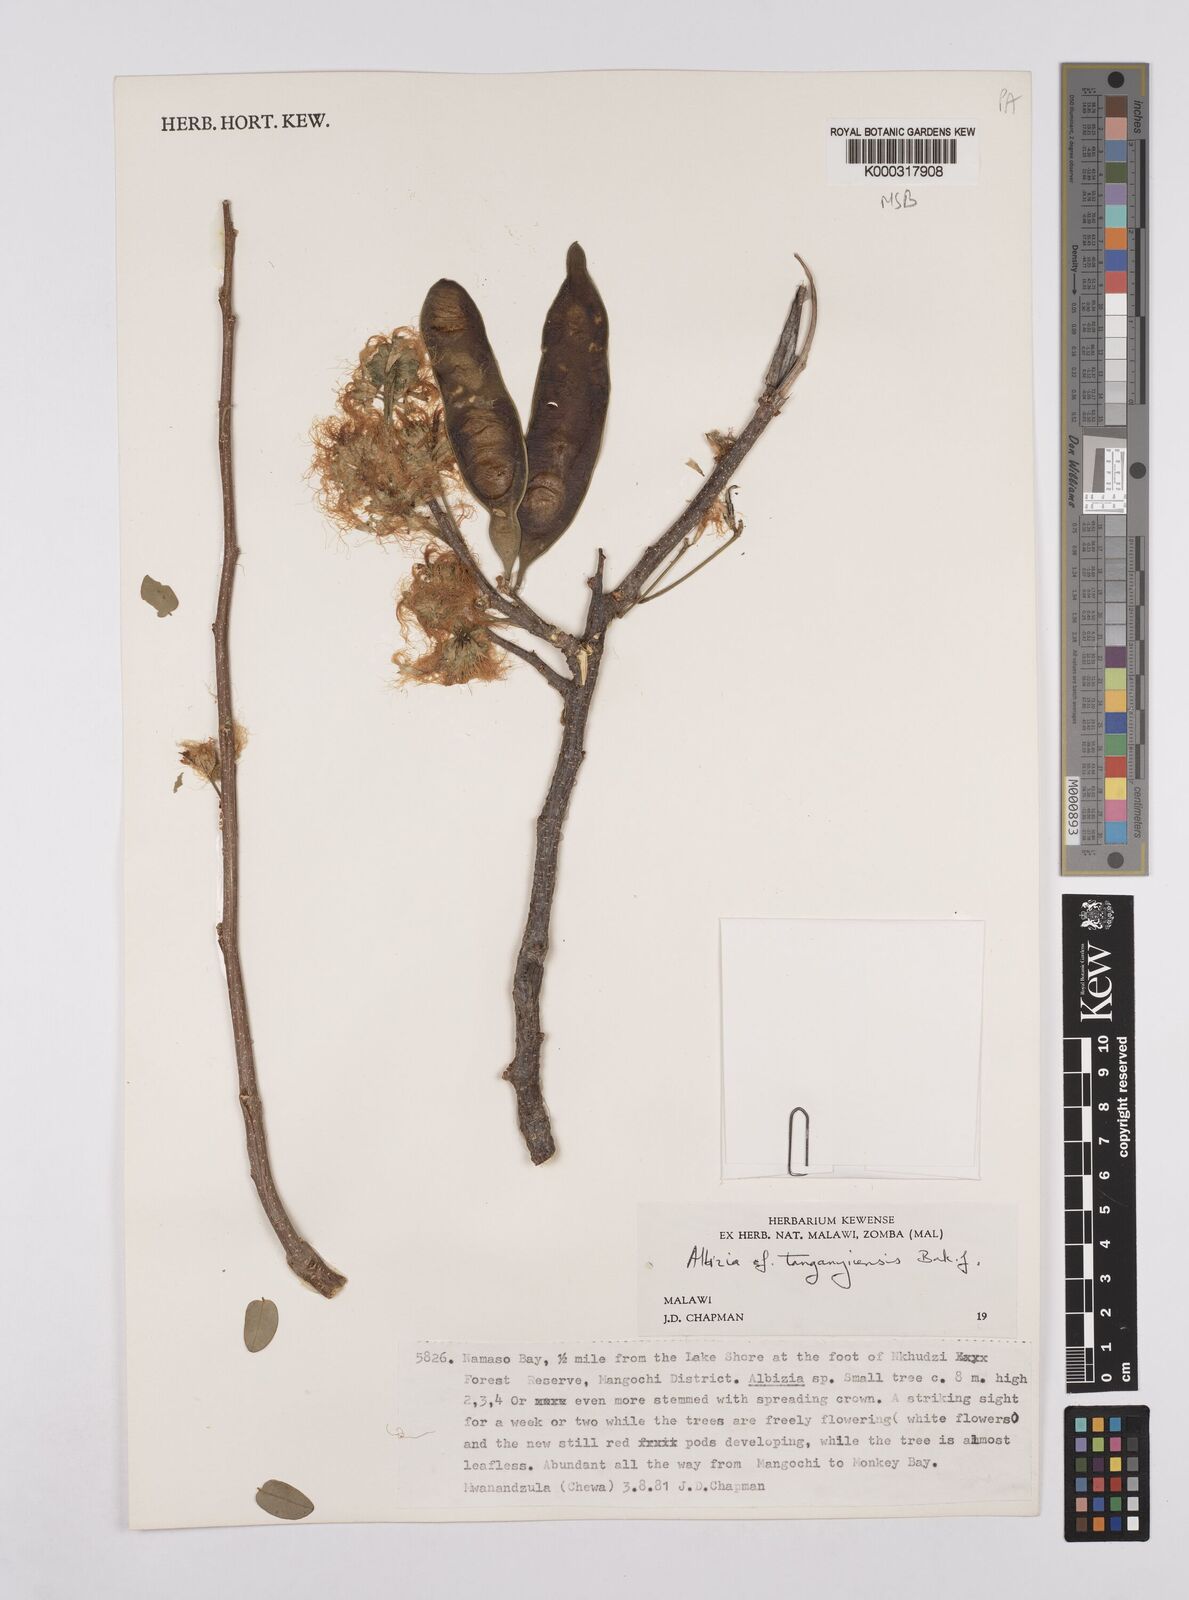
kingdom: Plantae
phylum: Tracheophyta
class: Magnoliopsida
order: Fabales
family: Fabaceae
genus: Albizia
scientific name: Albizia tanganyicensis
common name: Paperbark false thorn
